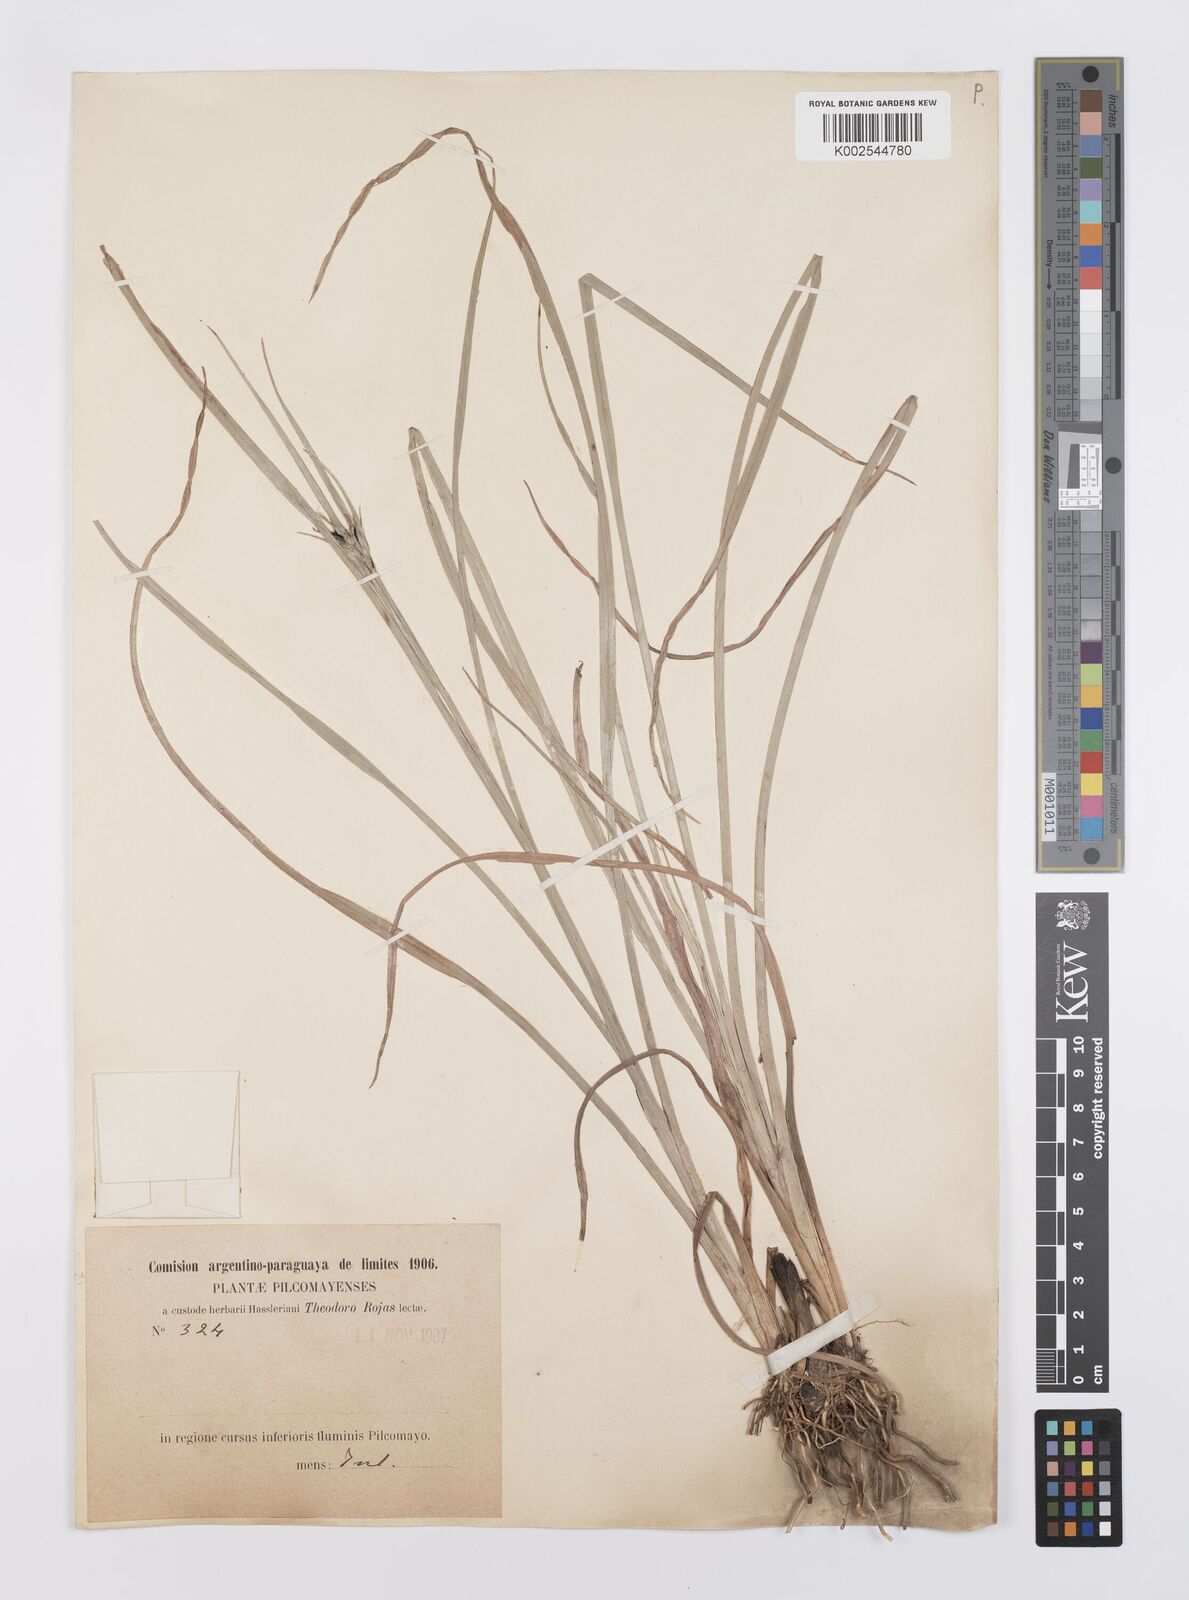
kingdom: Plantae
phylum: Tracheophyta
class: Liliopsida
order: Poales
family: Cyperaceae
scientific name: Cyperaceae
